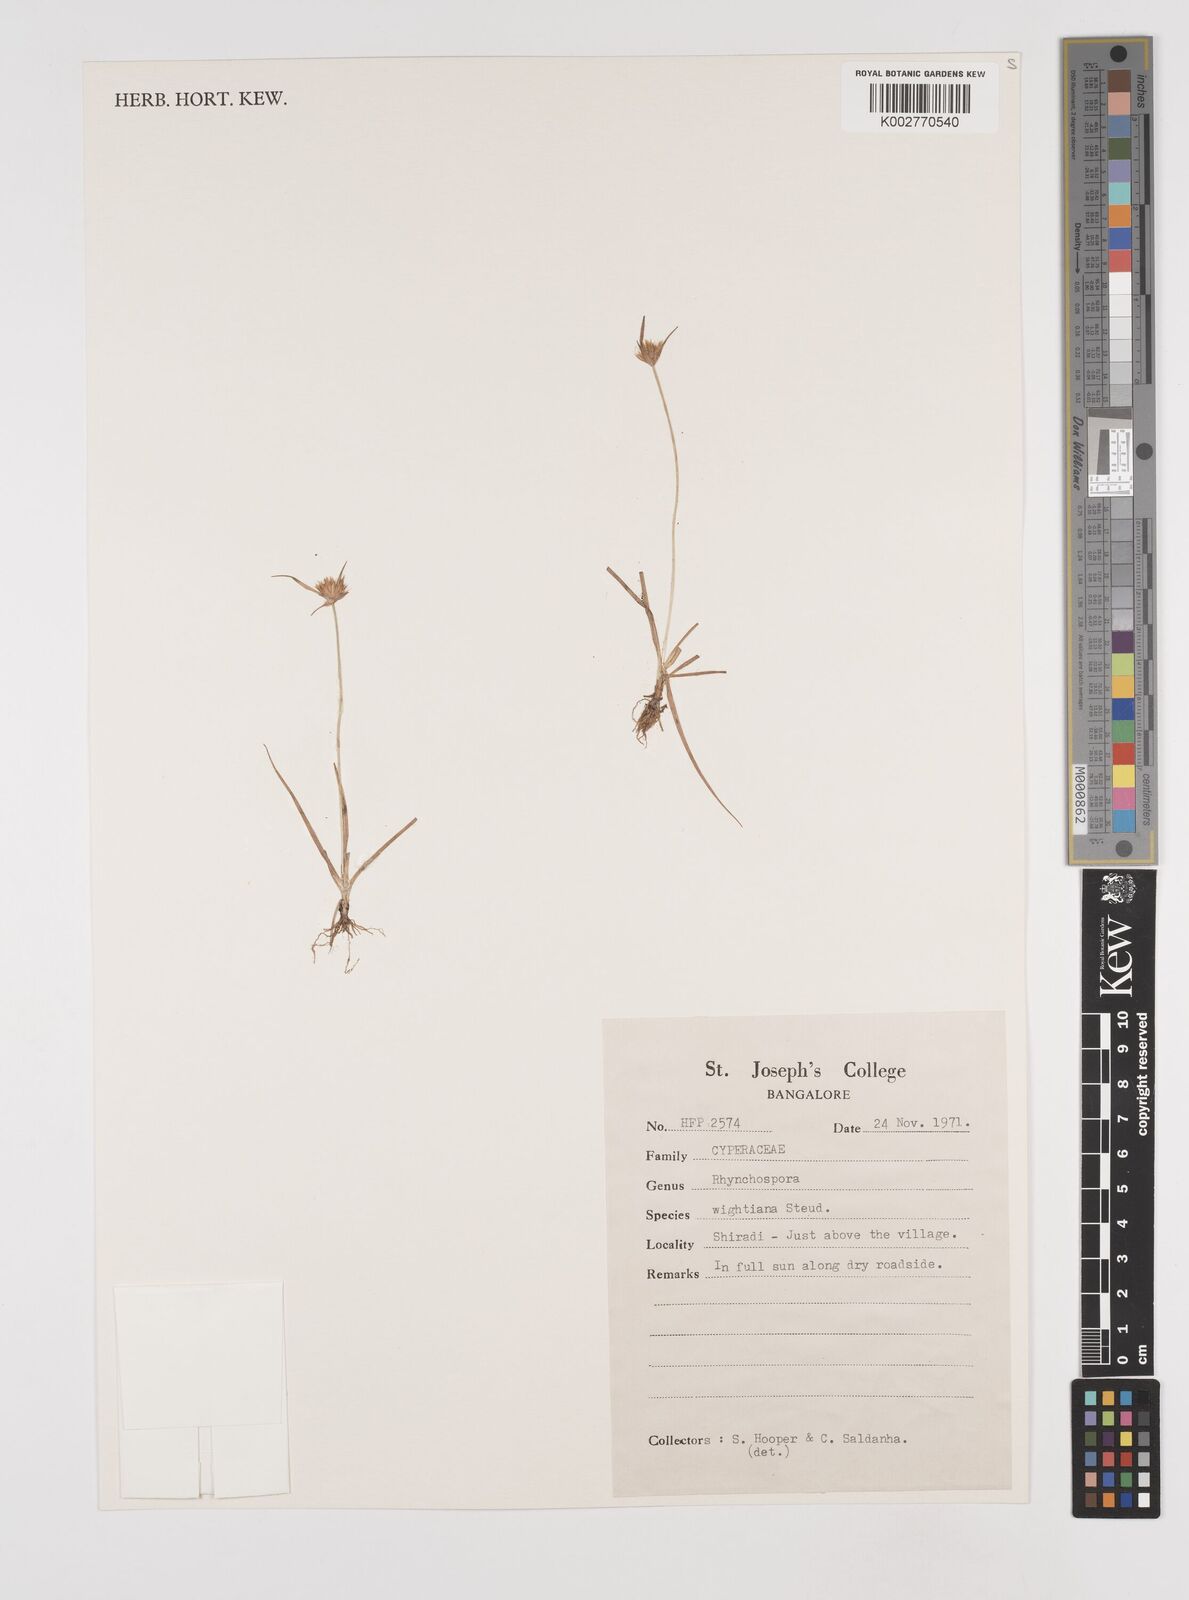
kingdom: Plantae
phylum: Tracheophyta
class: Liliopsida
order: Poales
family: Cyperaceae
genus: Rhynchospora
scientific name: Rhynchospora wightiana
